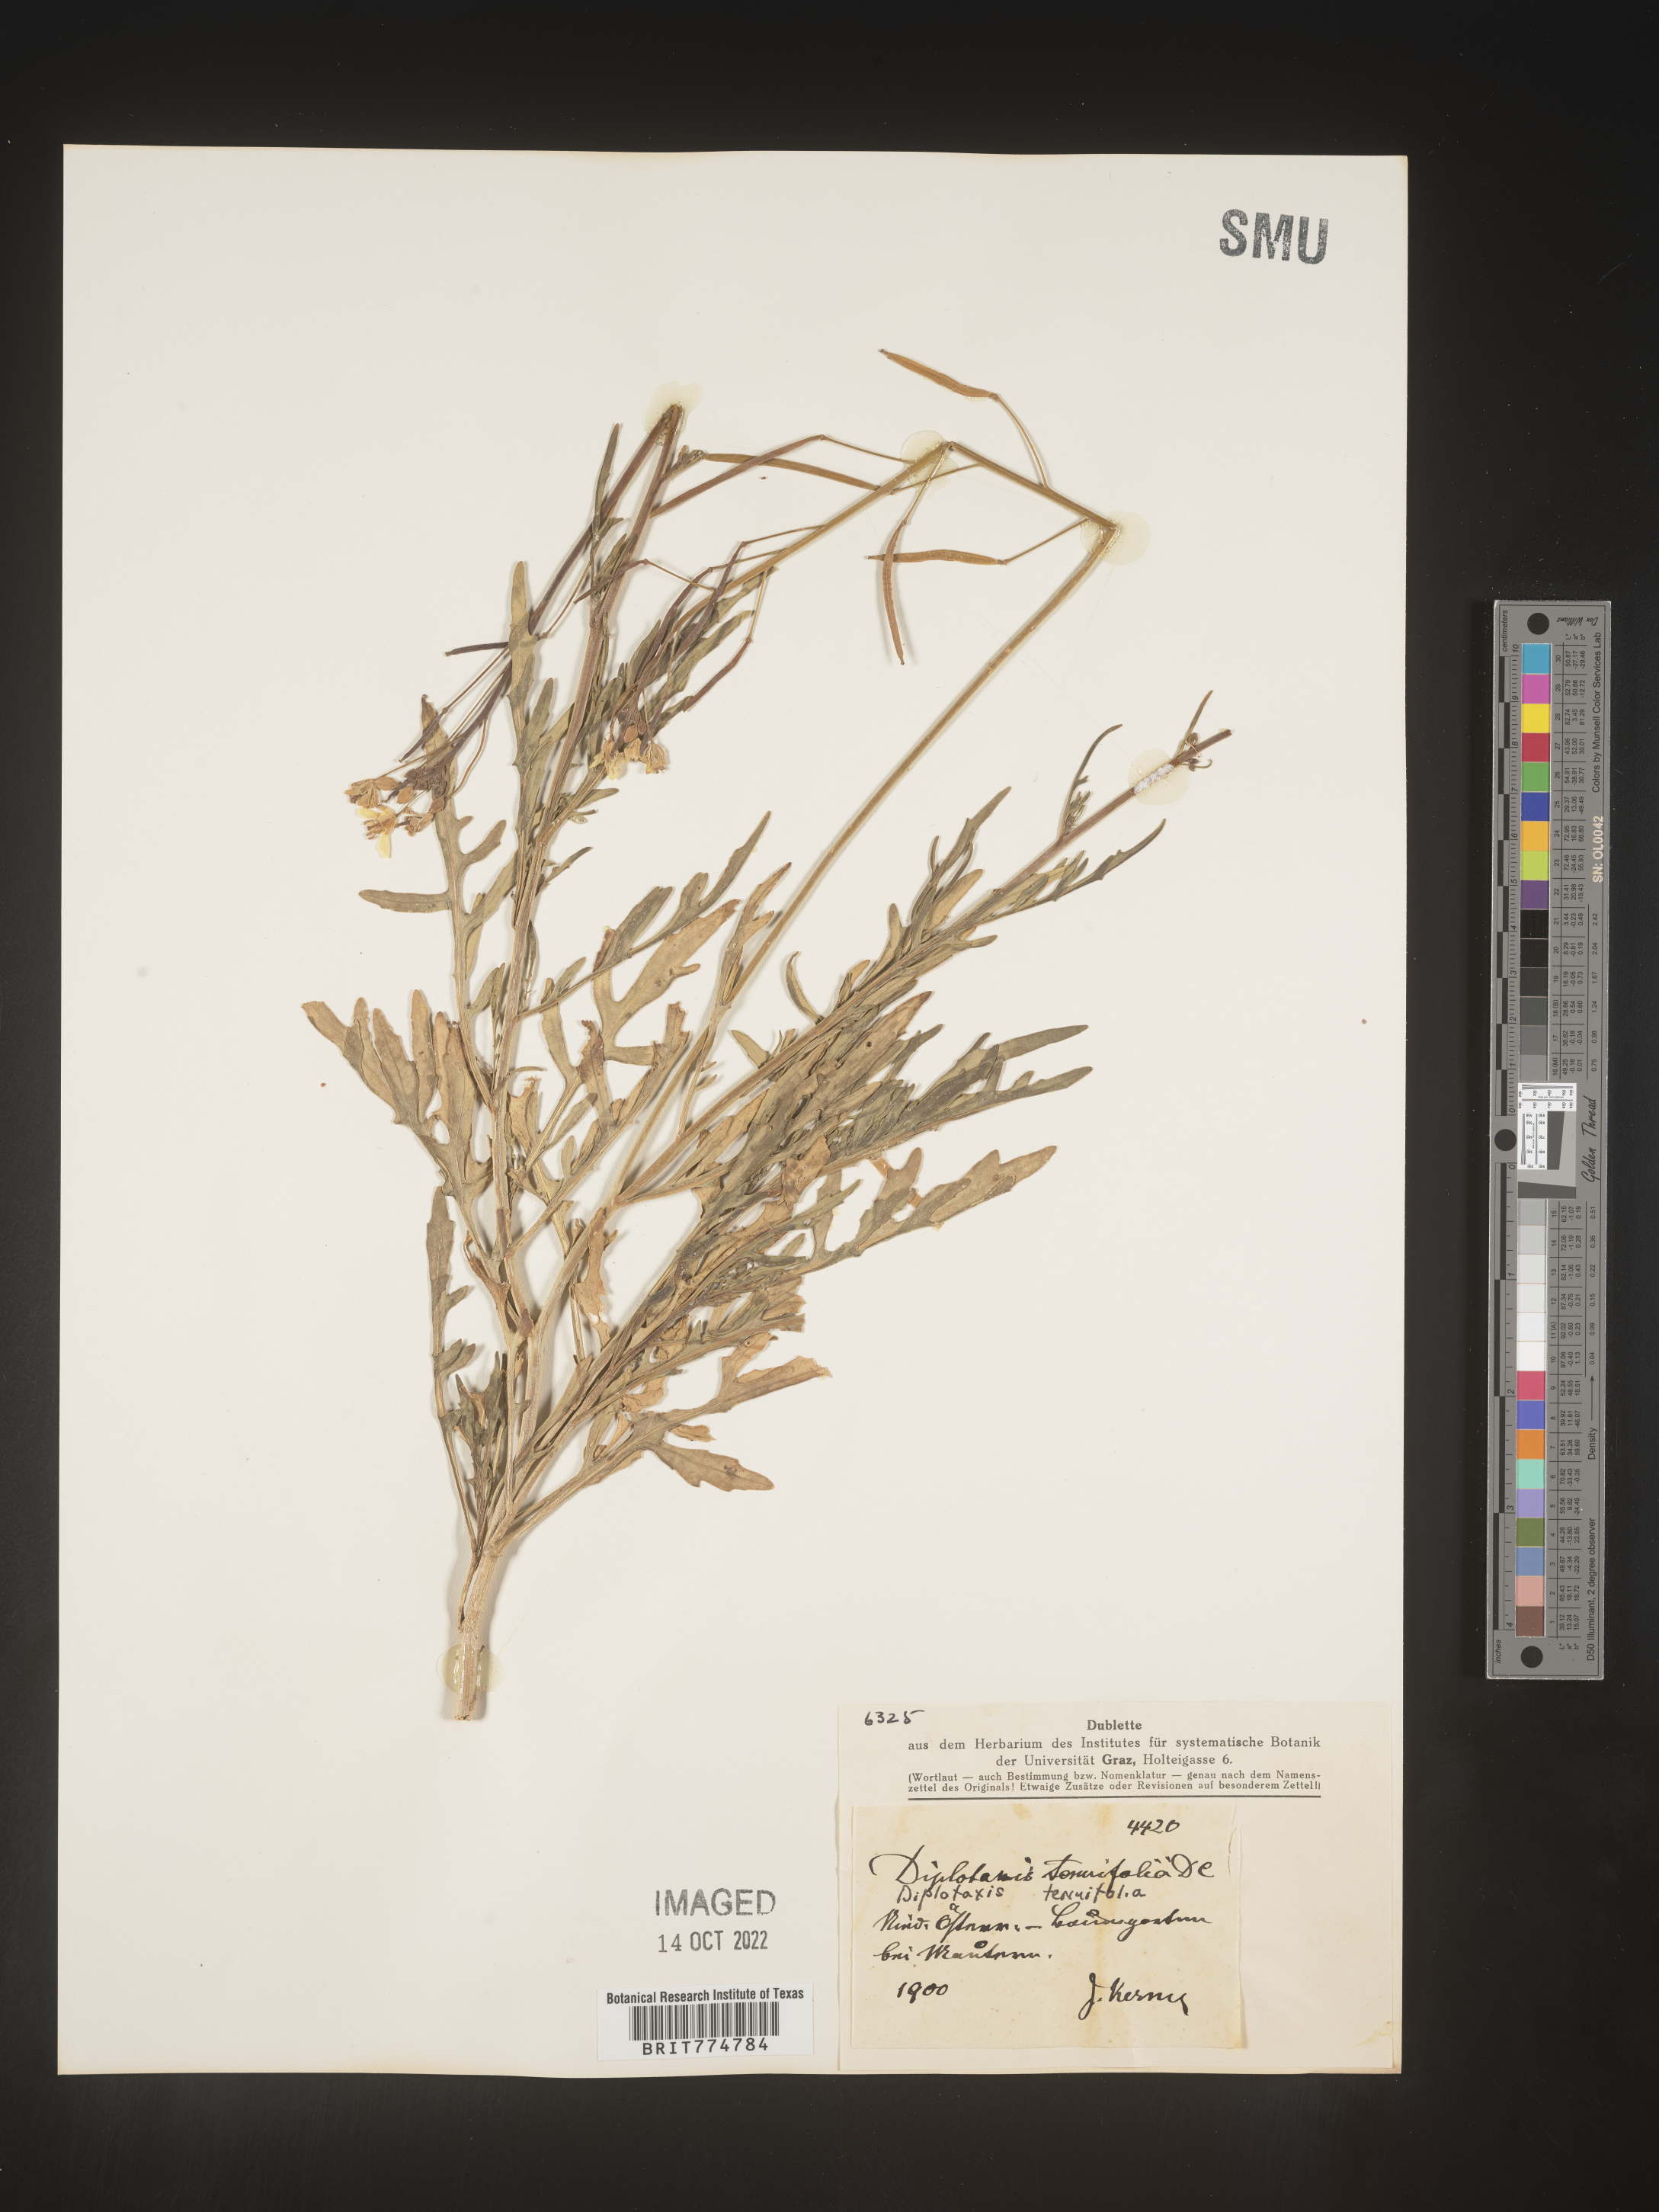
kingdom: Plantae
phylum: Tracheophyta
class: Magnoliopsida
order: Brassicales
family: Brassicaceae
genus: Diplotaxis
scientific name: Diplotaxis
